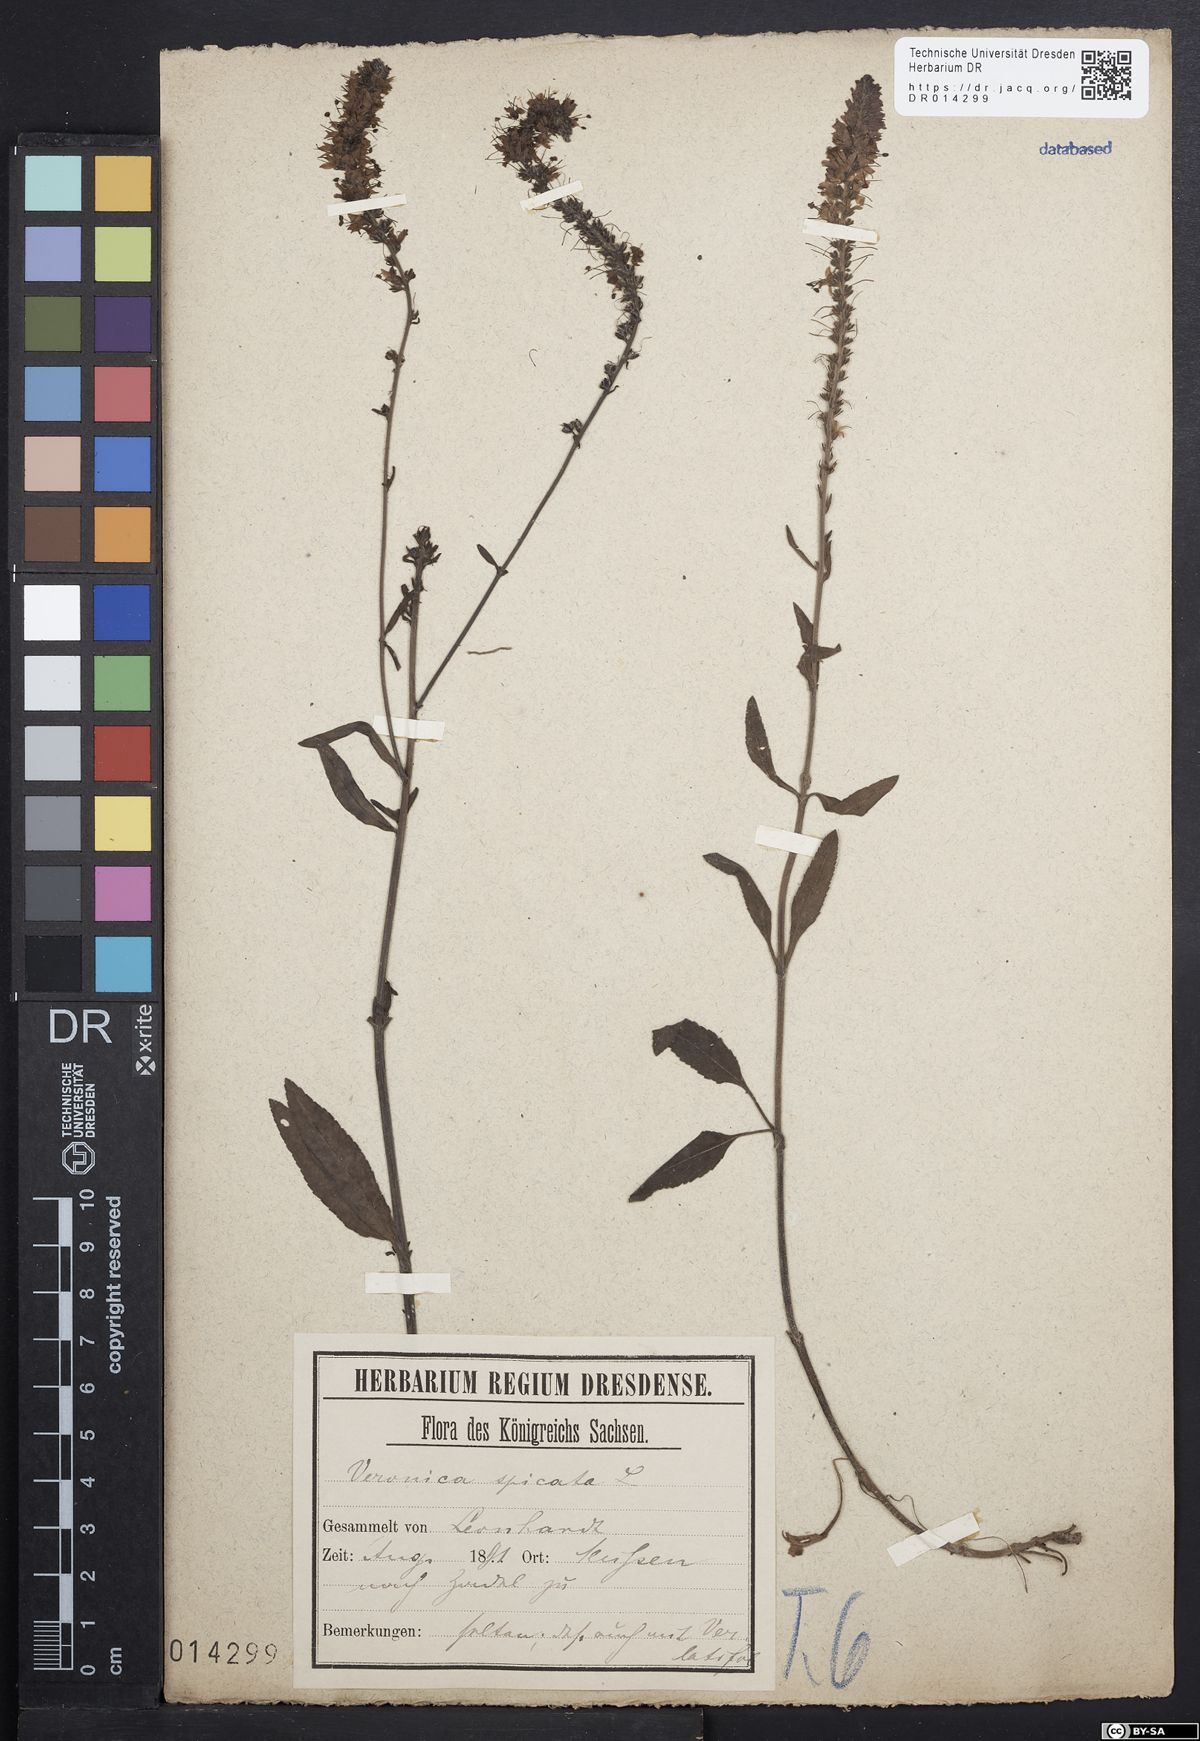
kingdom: Plantae
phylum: Tracheophyta
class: Magnoliopsida
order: Lamiales
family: Plantaginaceae
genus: Veronica
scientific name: Veronica spicata
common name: Spiked speedwell
